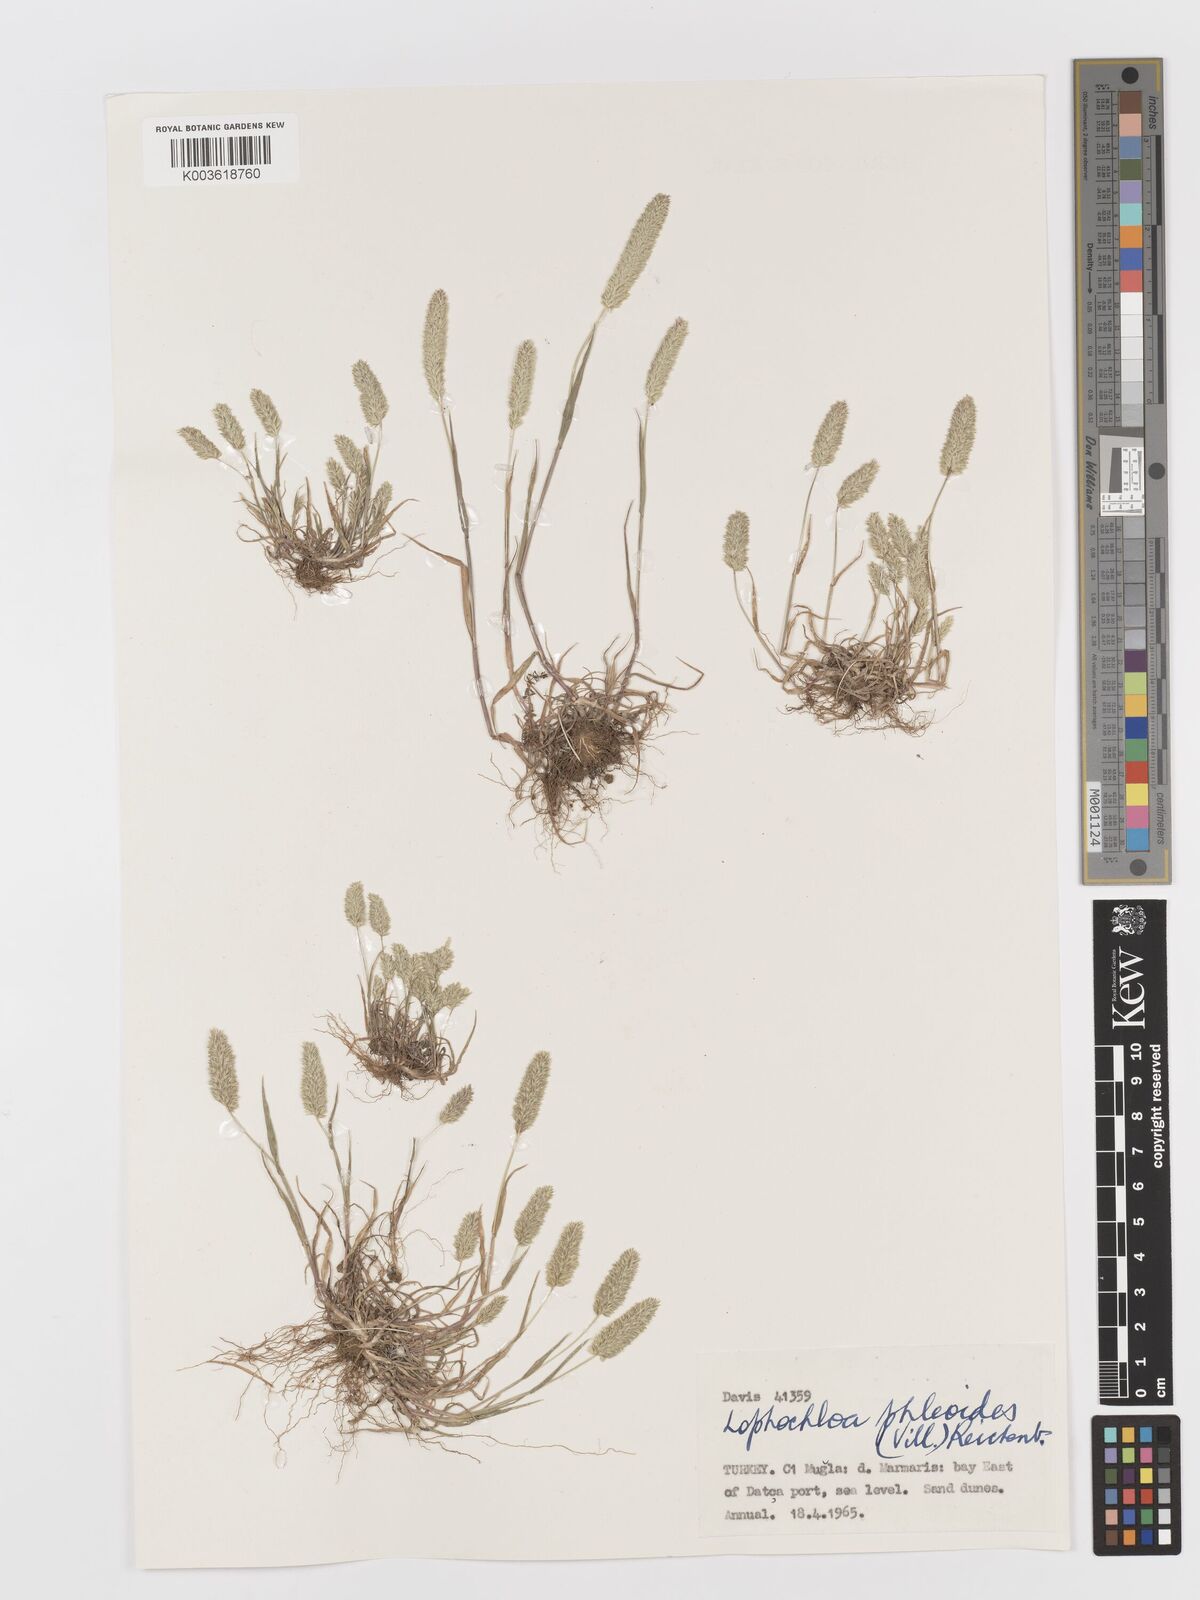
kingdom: Plantae
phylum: Tracheophyta
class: Liliopsida
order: Poales
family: Poaceae
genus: Rostraria
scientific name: Rostraria cristata
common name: Mediterranean hair-grass
